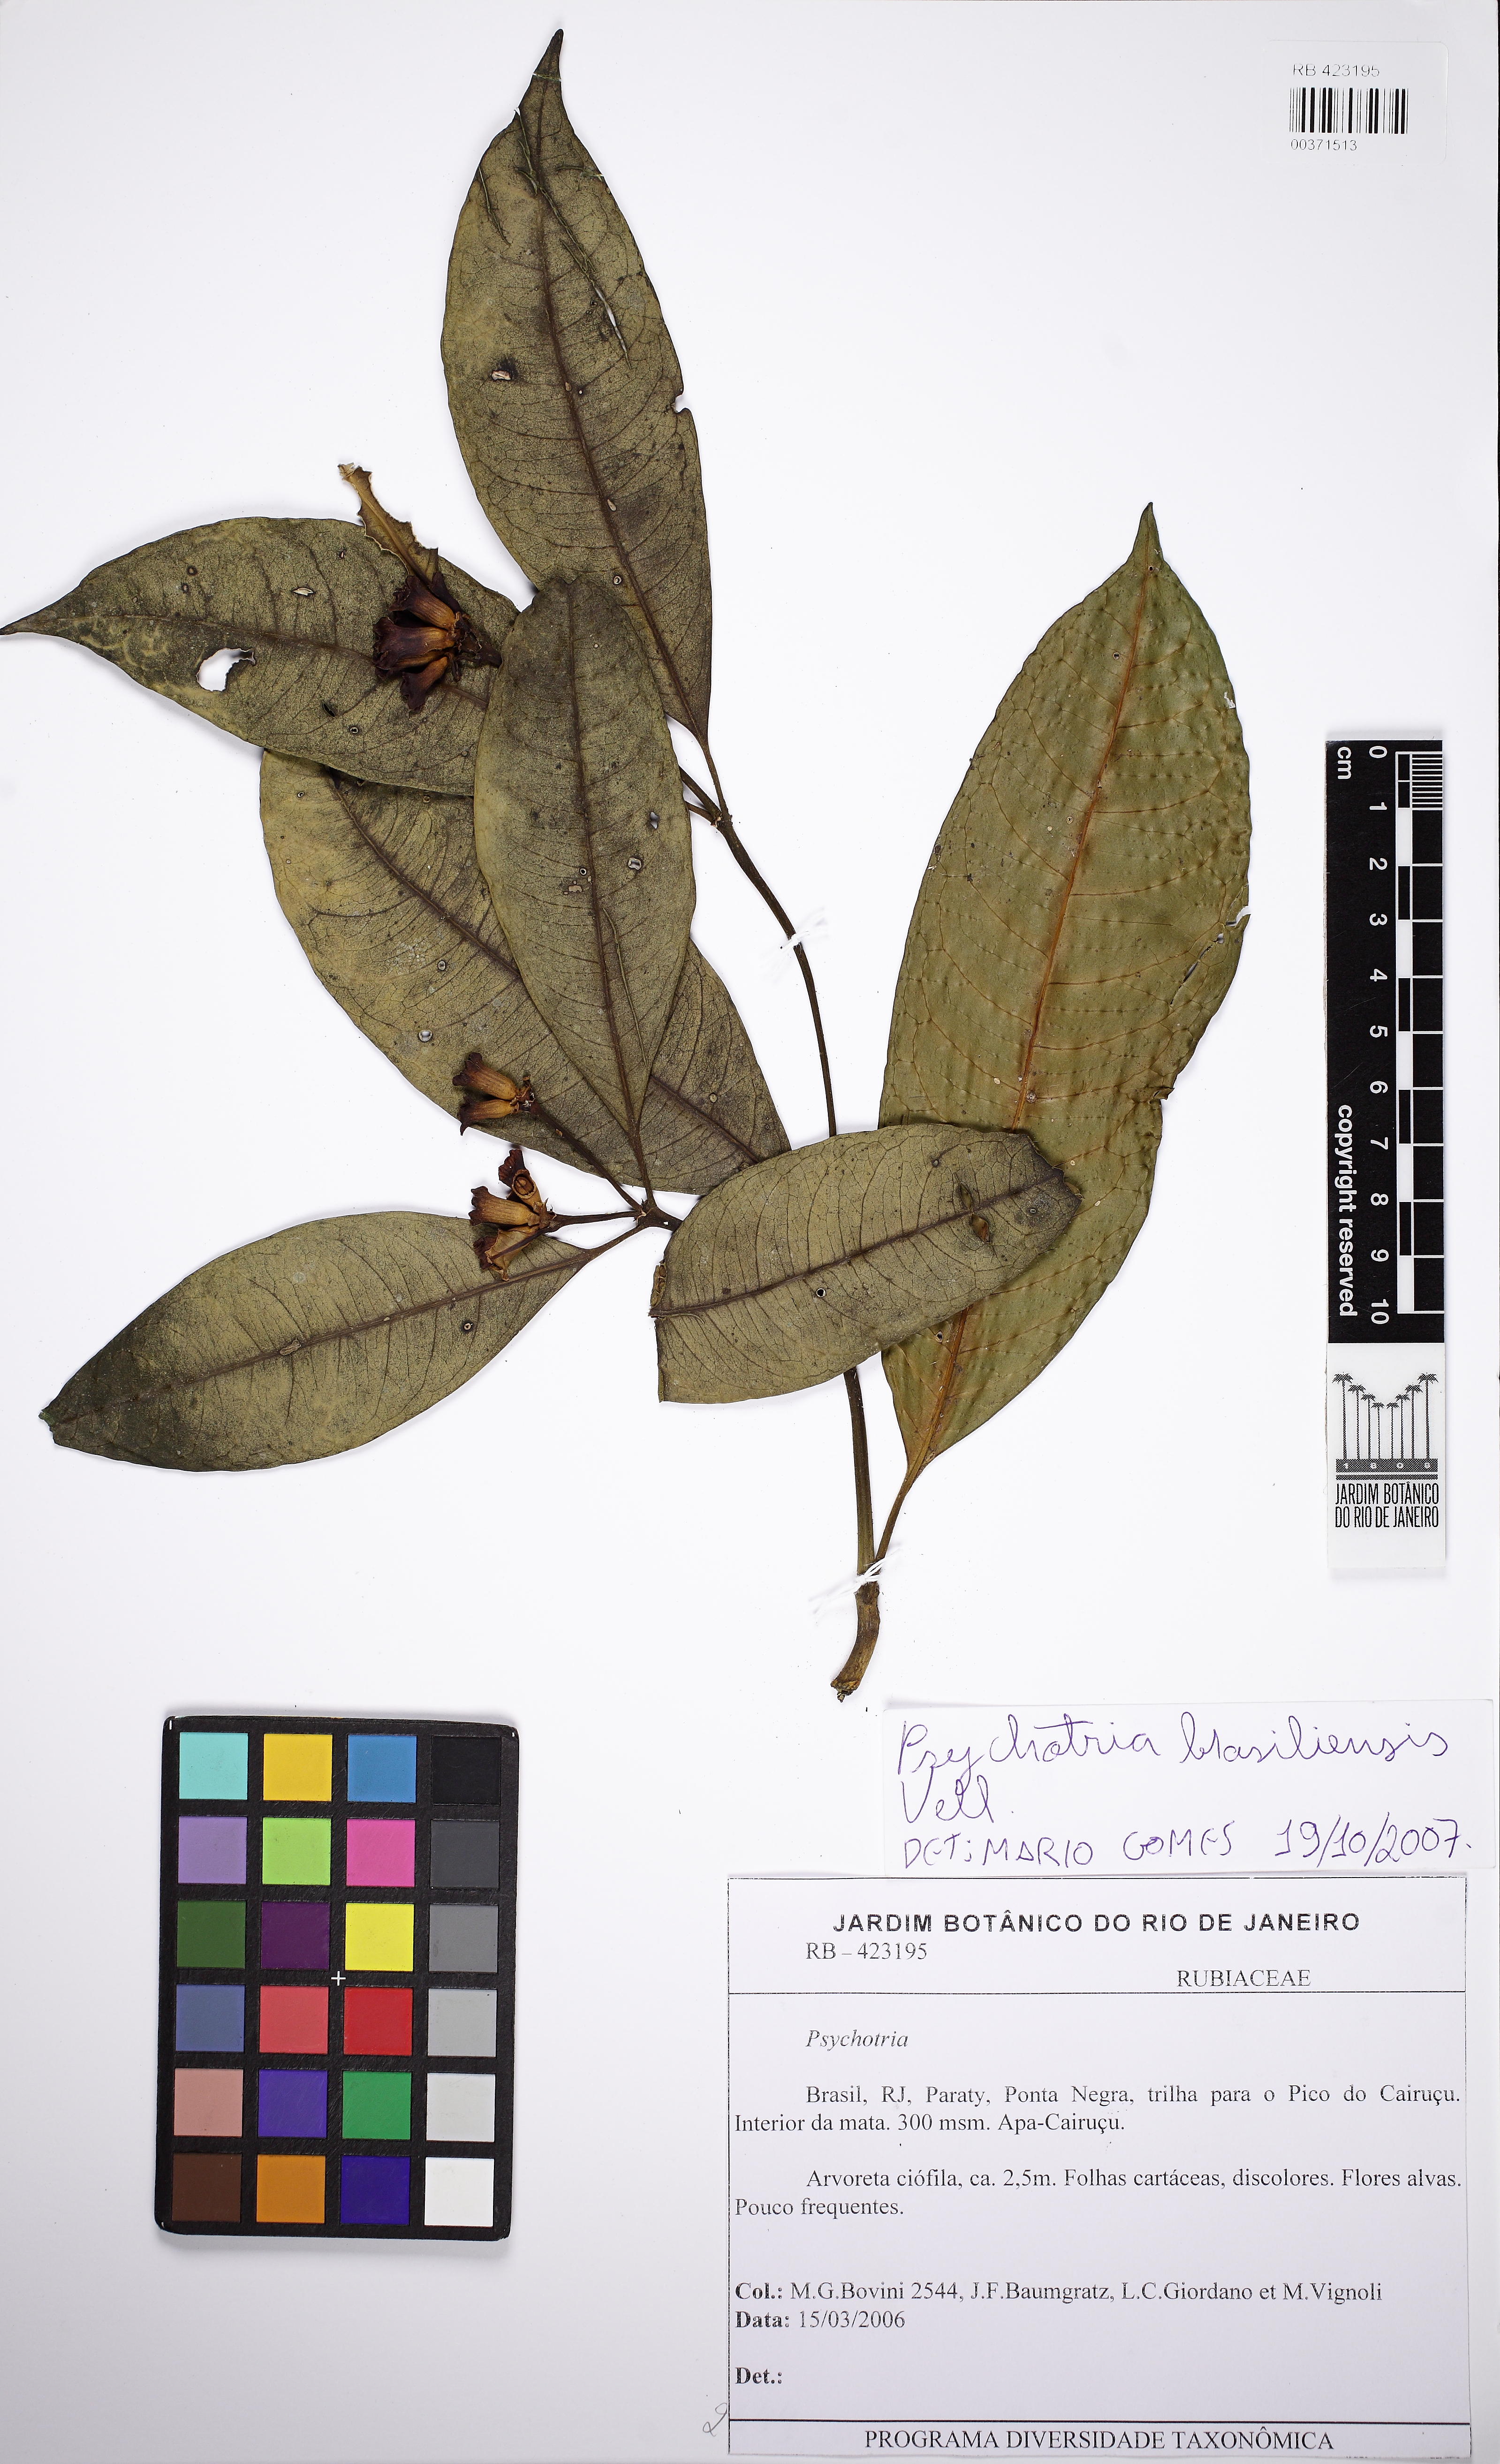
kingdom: Plantae
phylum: Tracheophyta
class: Magnoliopsida
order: Gentianales
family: Rubiaceae
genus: Psychotria
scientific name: Psychotria nuda
